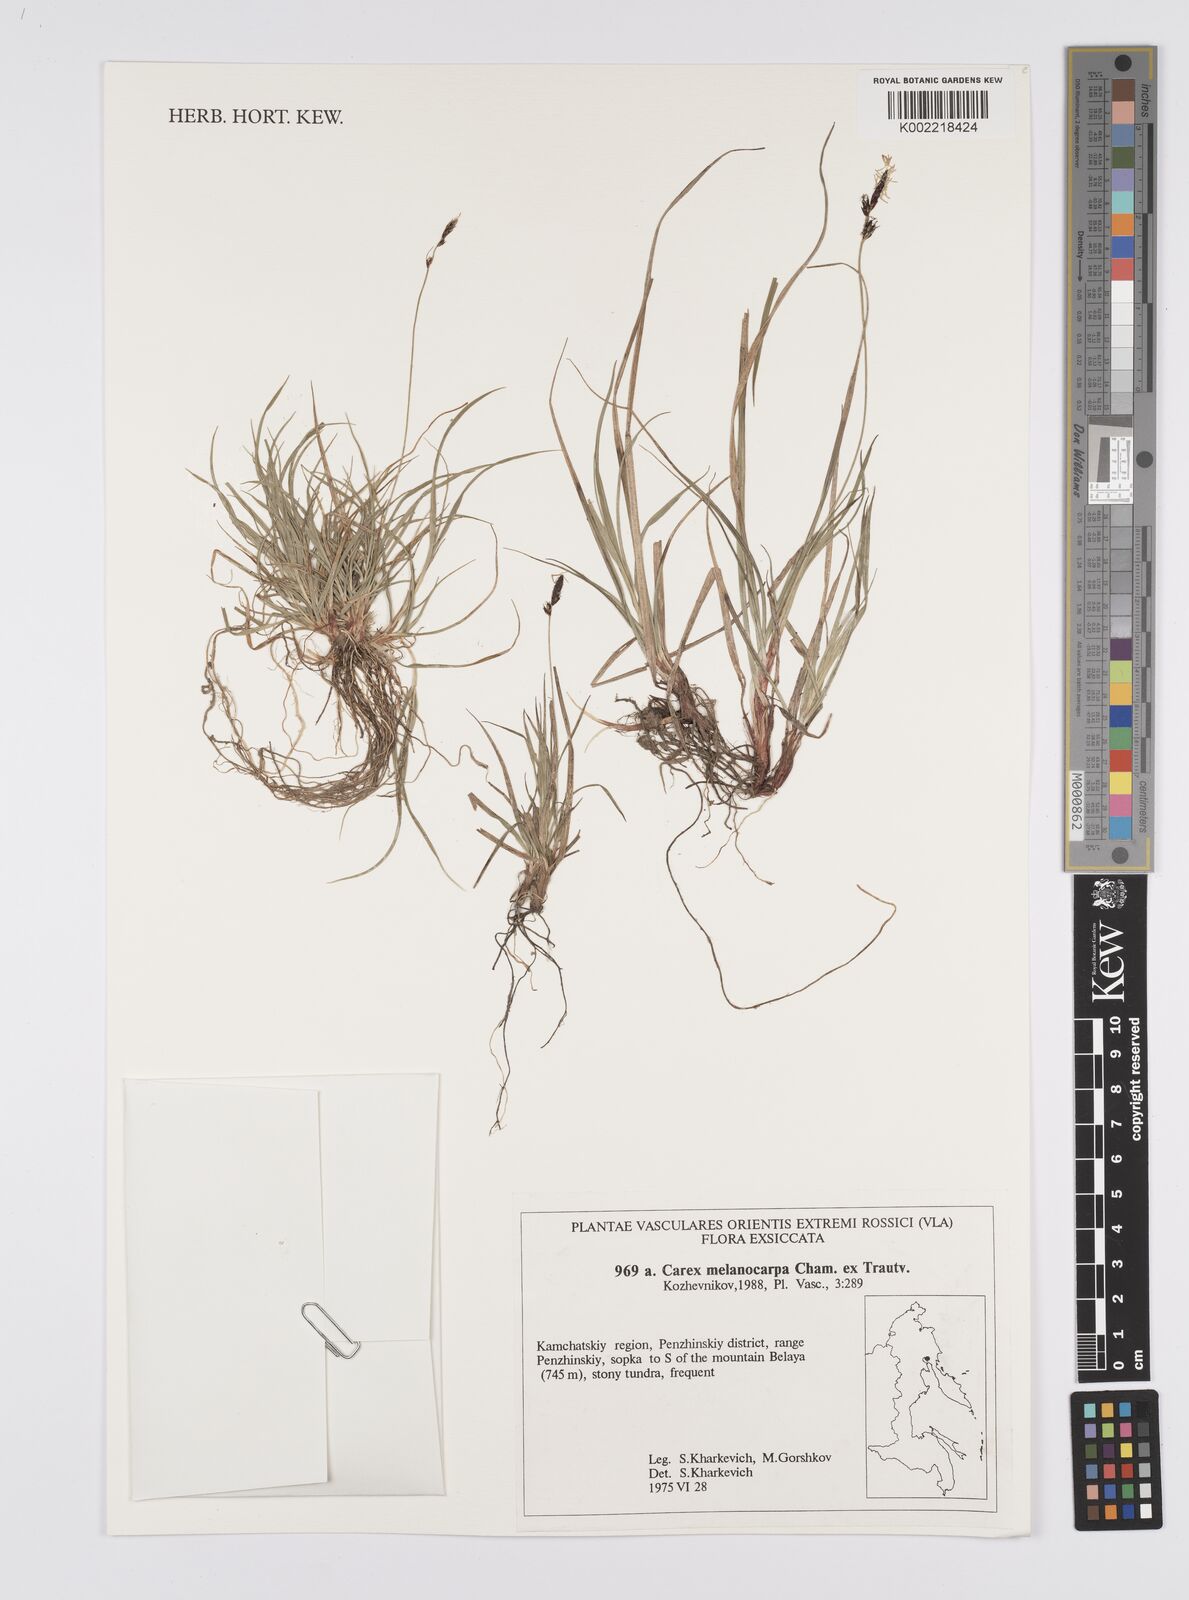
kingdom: Plantae
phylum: Tracheophyta
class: Liliopsida
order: Poales
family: Cyperaceae
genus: Carex
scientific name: Carex melanocarpa
